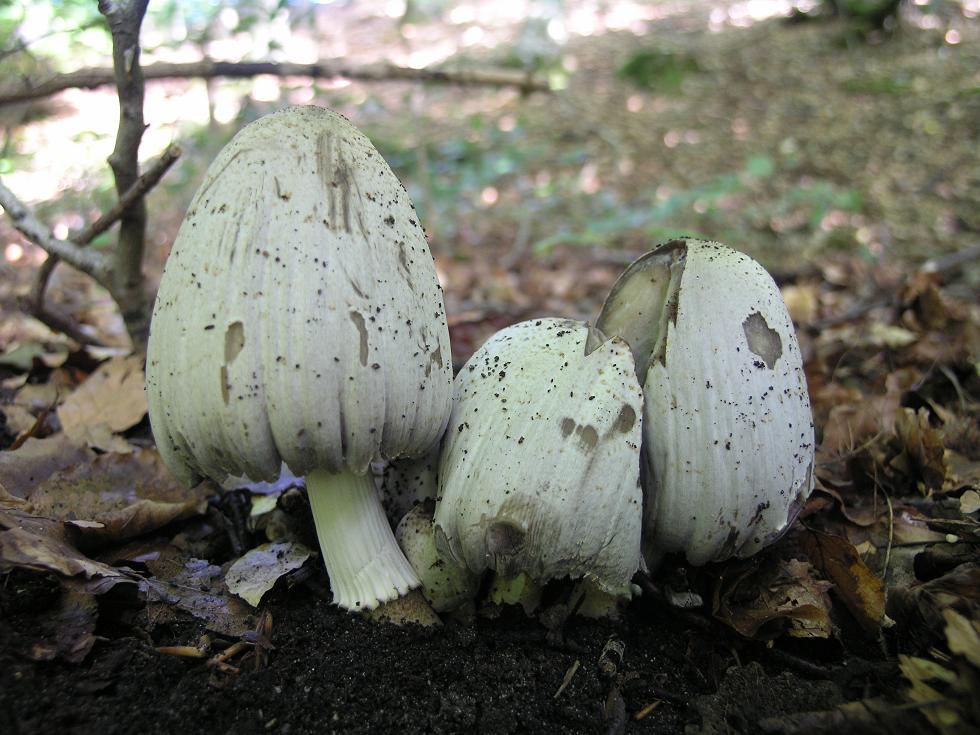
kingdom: Fungi
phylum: Basidiomycota
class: Agaricomycetes
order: Agaricales
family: Psathyrellaceae
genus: Coprinopsis
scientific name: Coprinopsis atramentaria
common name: almindelig blækhat
